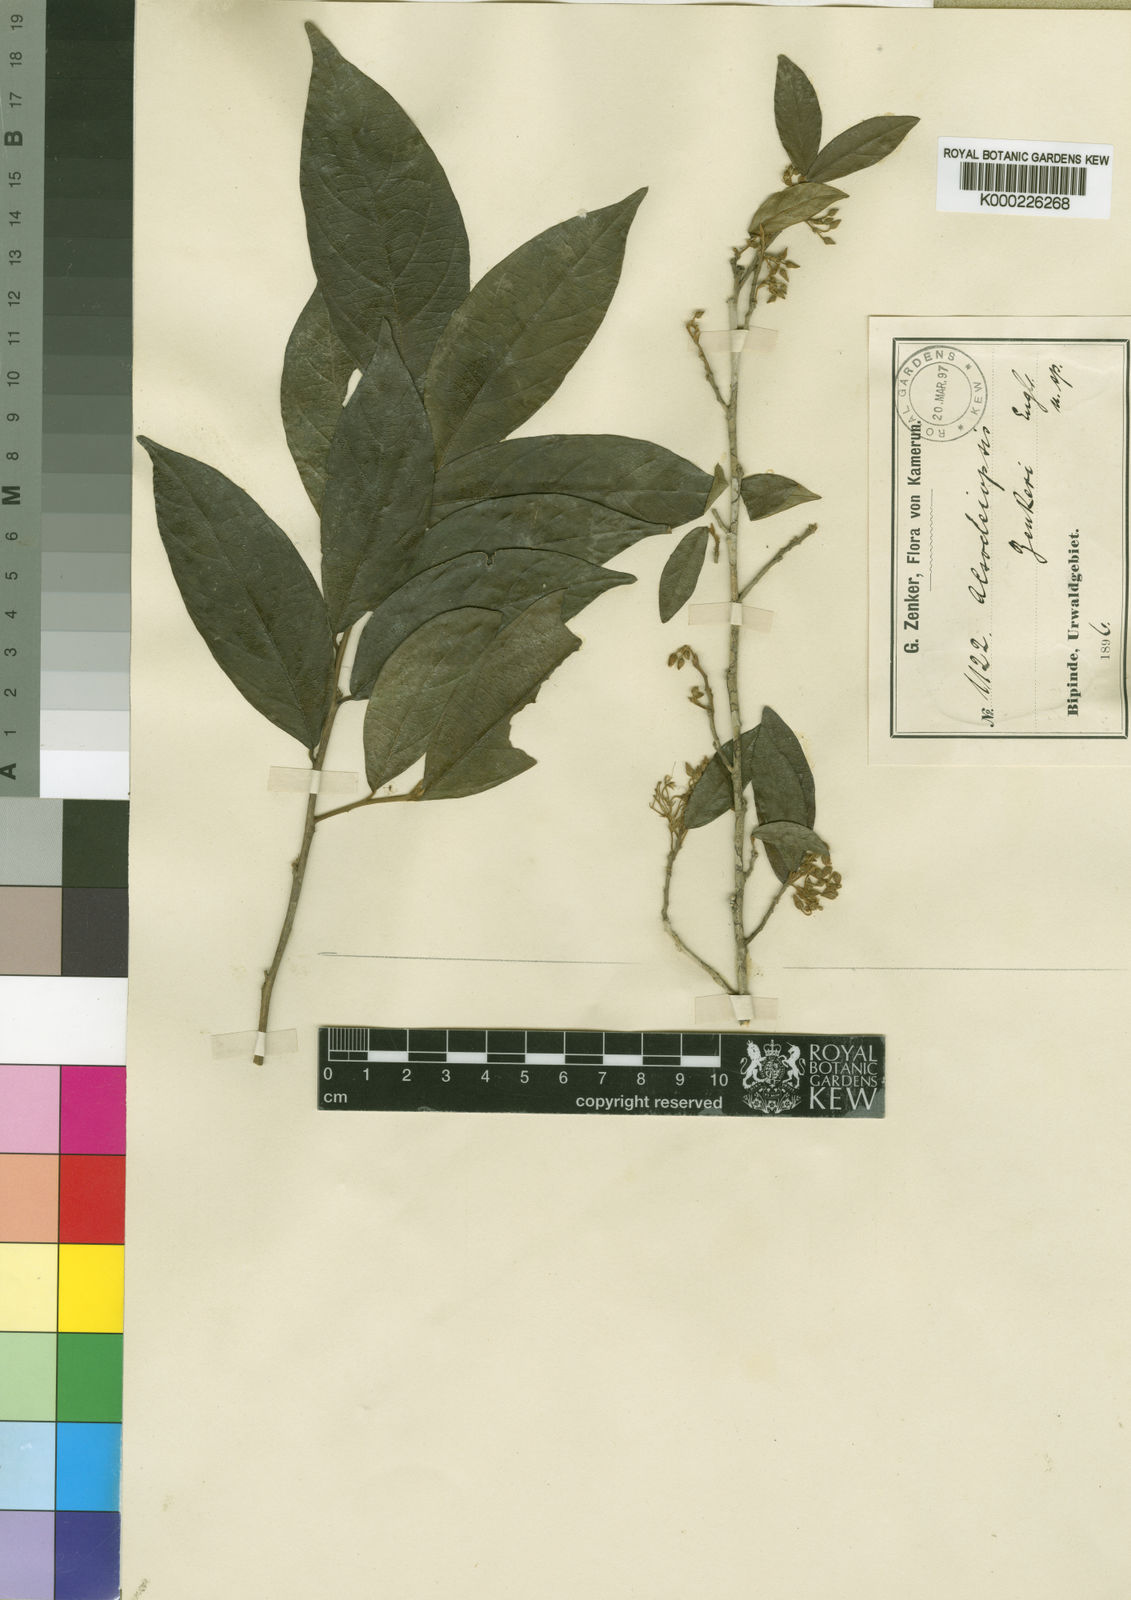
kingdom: Plantae
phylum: Tracheophyta
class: Magnoliopsida
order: Icacinales
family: Icacinaceae
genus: Alsodeiopsis
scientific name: Alsodeiopsis zenkeri
